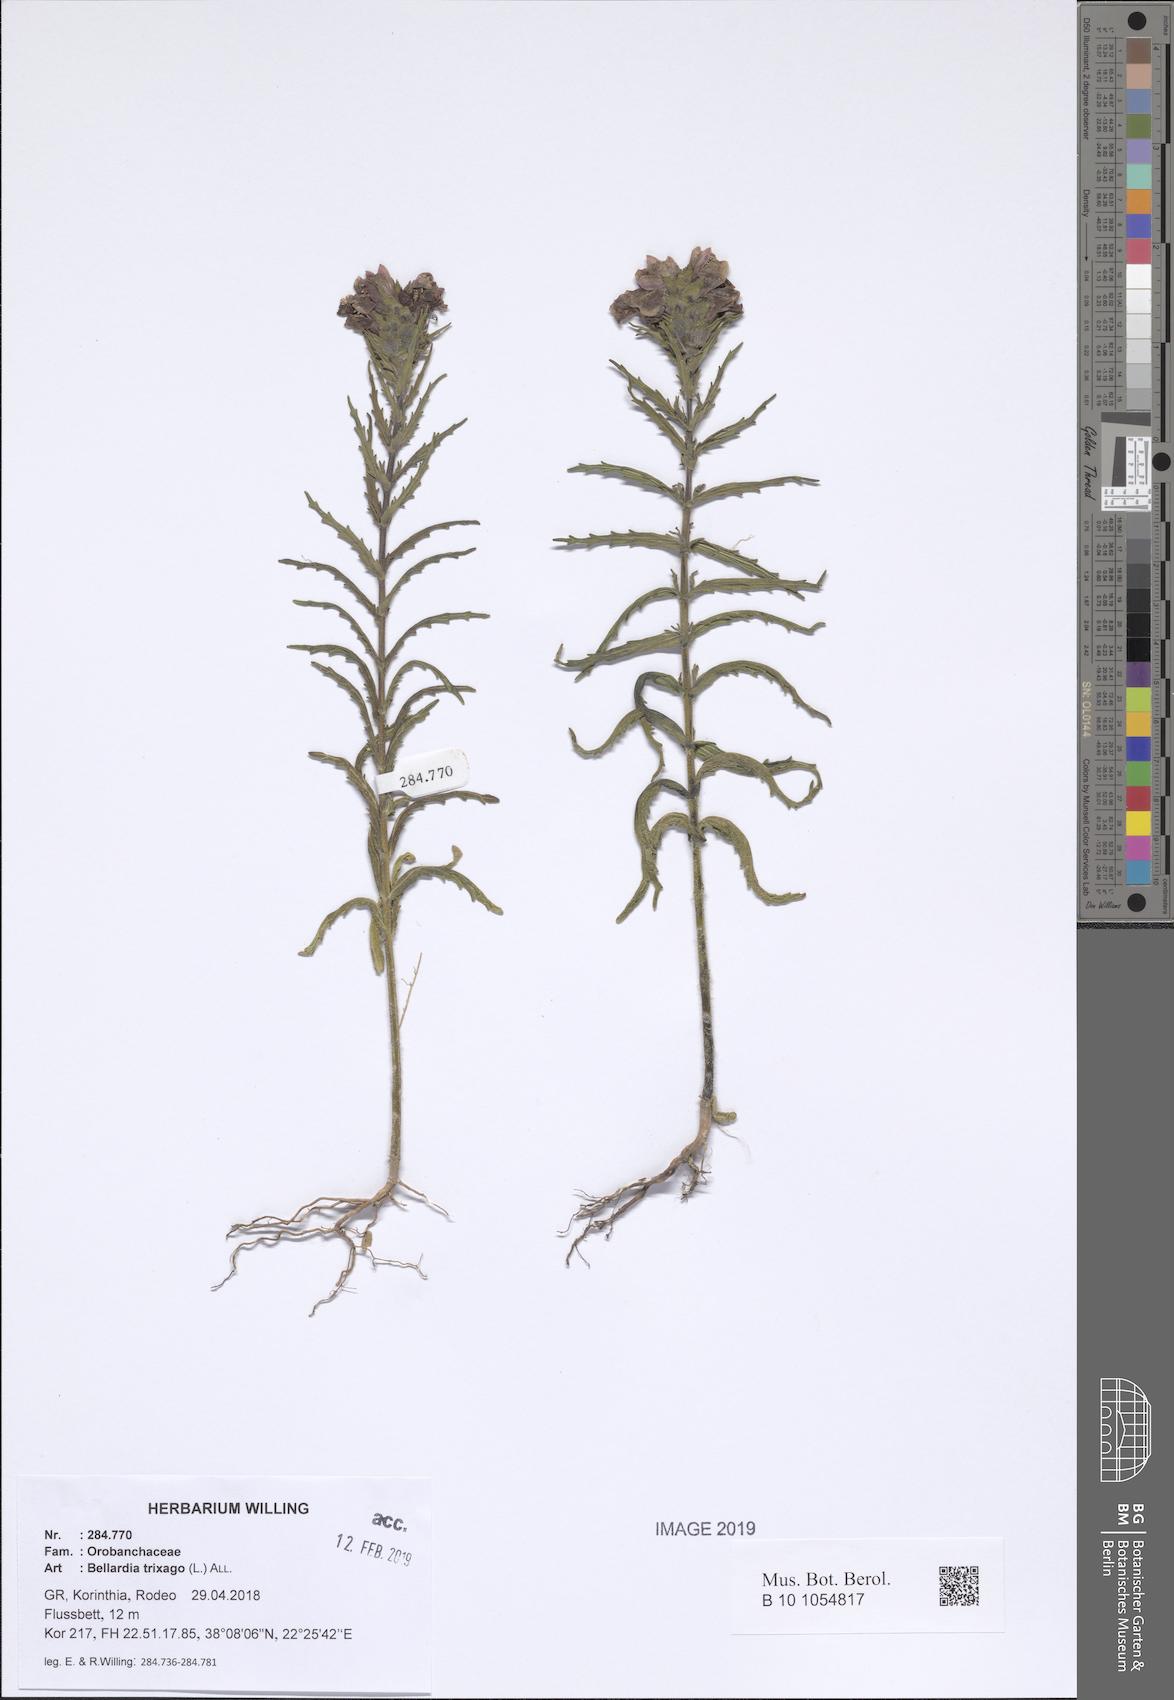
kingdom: Plantae
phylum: Tracheophyta
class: Magnoliopsida
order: Lamiales
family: Orobanchaceae
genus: Bellardia
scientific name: Bellardia trixago
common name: Mediterranean lineseed
